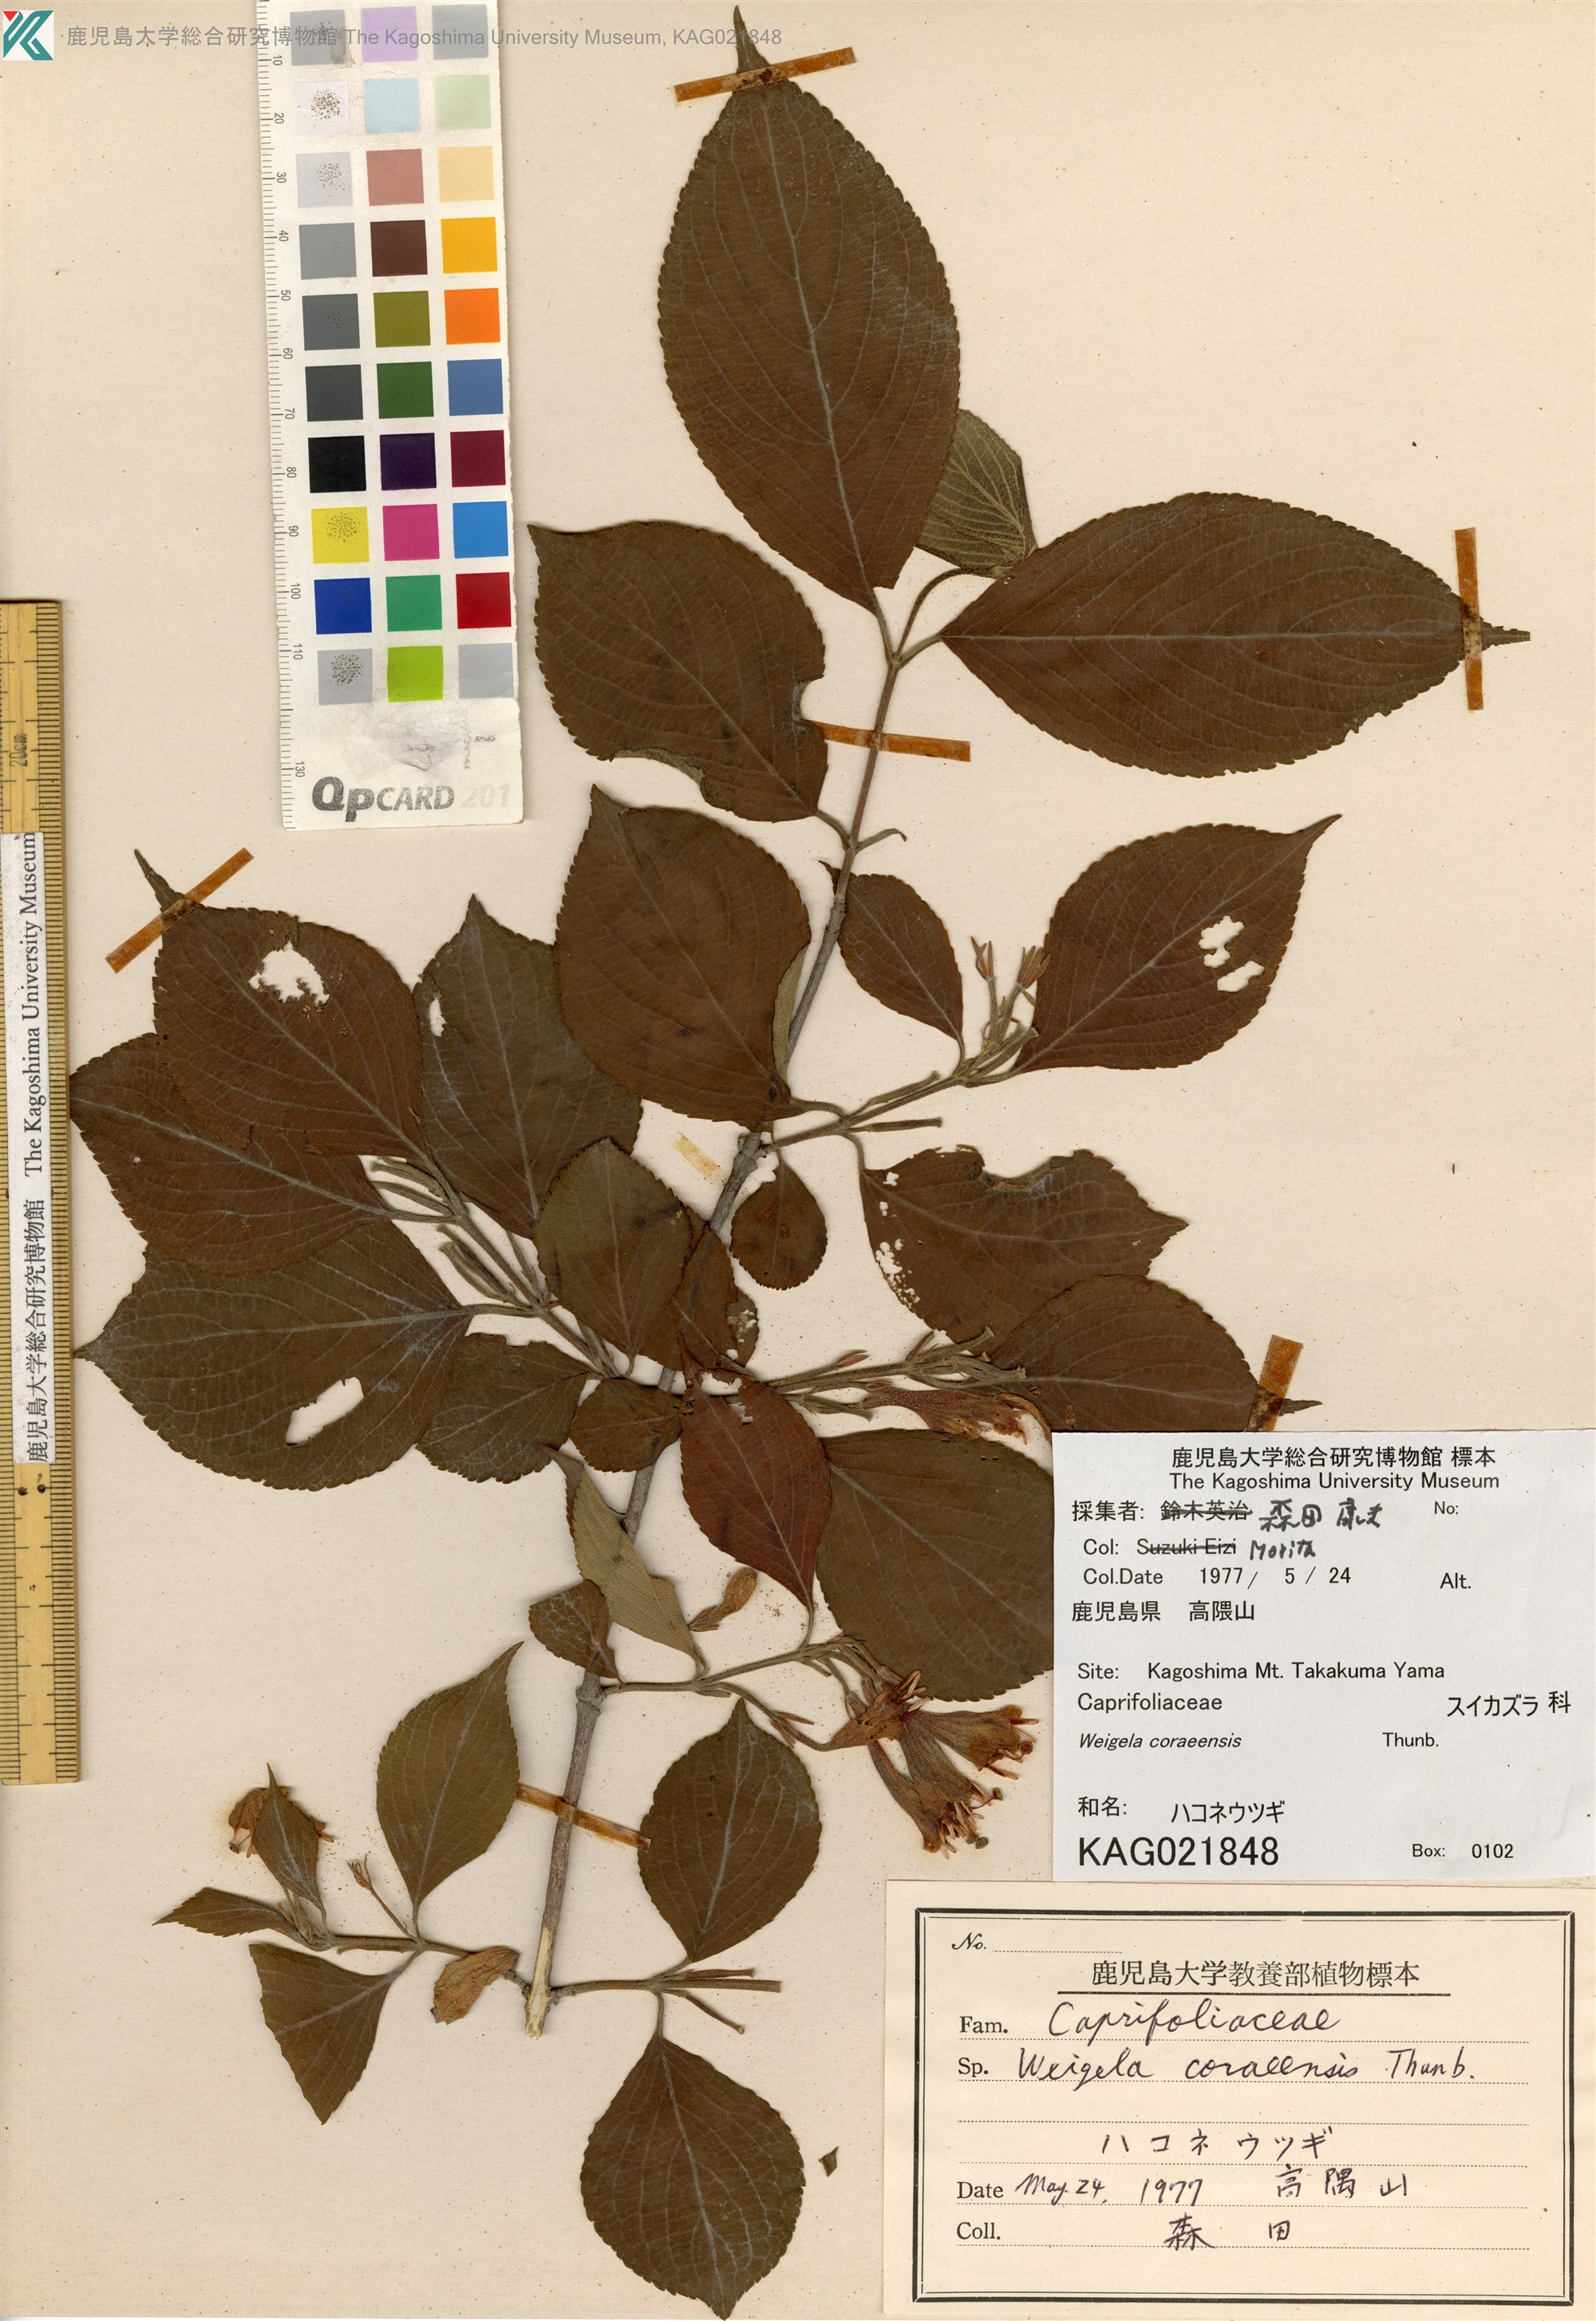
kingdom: Plantae
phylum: Tracheophyta
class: Magnoliopsida
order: Dipsacales
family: Caprifoliaceae
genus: Weigela
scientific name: Weigela coraeensis
